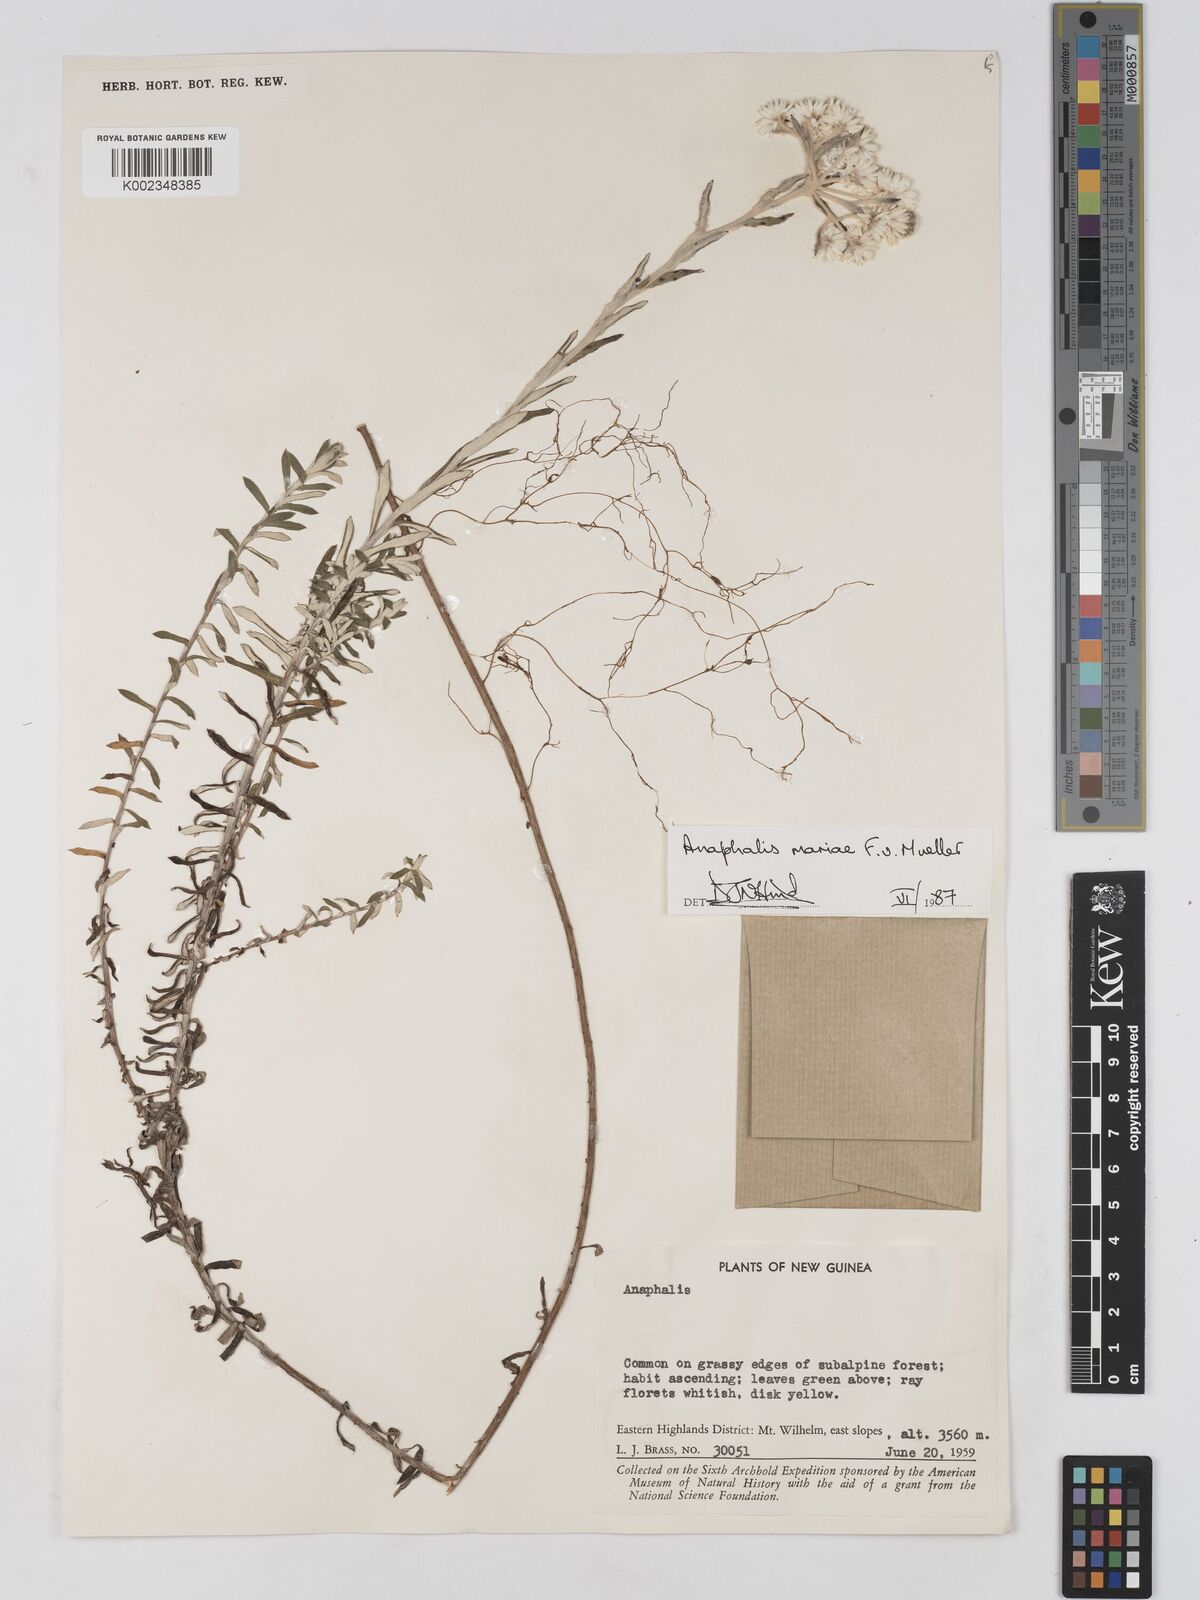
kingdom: Plantae
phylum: Tracheophyta
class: Magnoliopsida
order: Asterales
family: Asteraceae
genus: Anaphalioides
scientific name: Anaphalioides mariae
